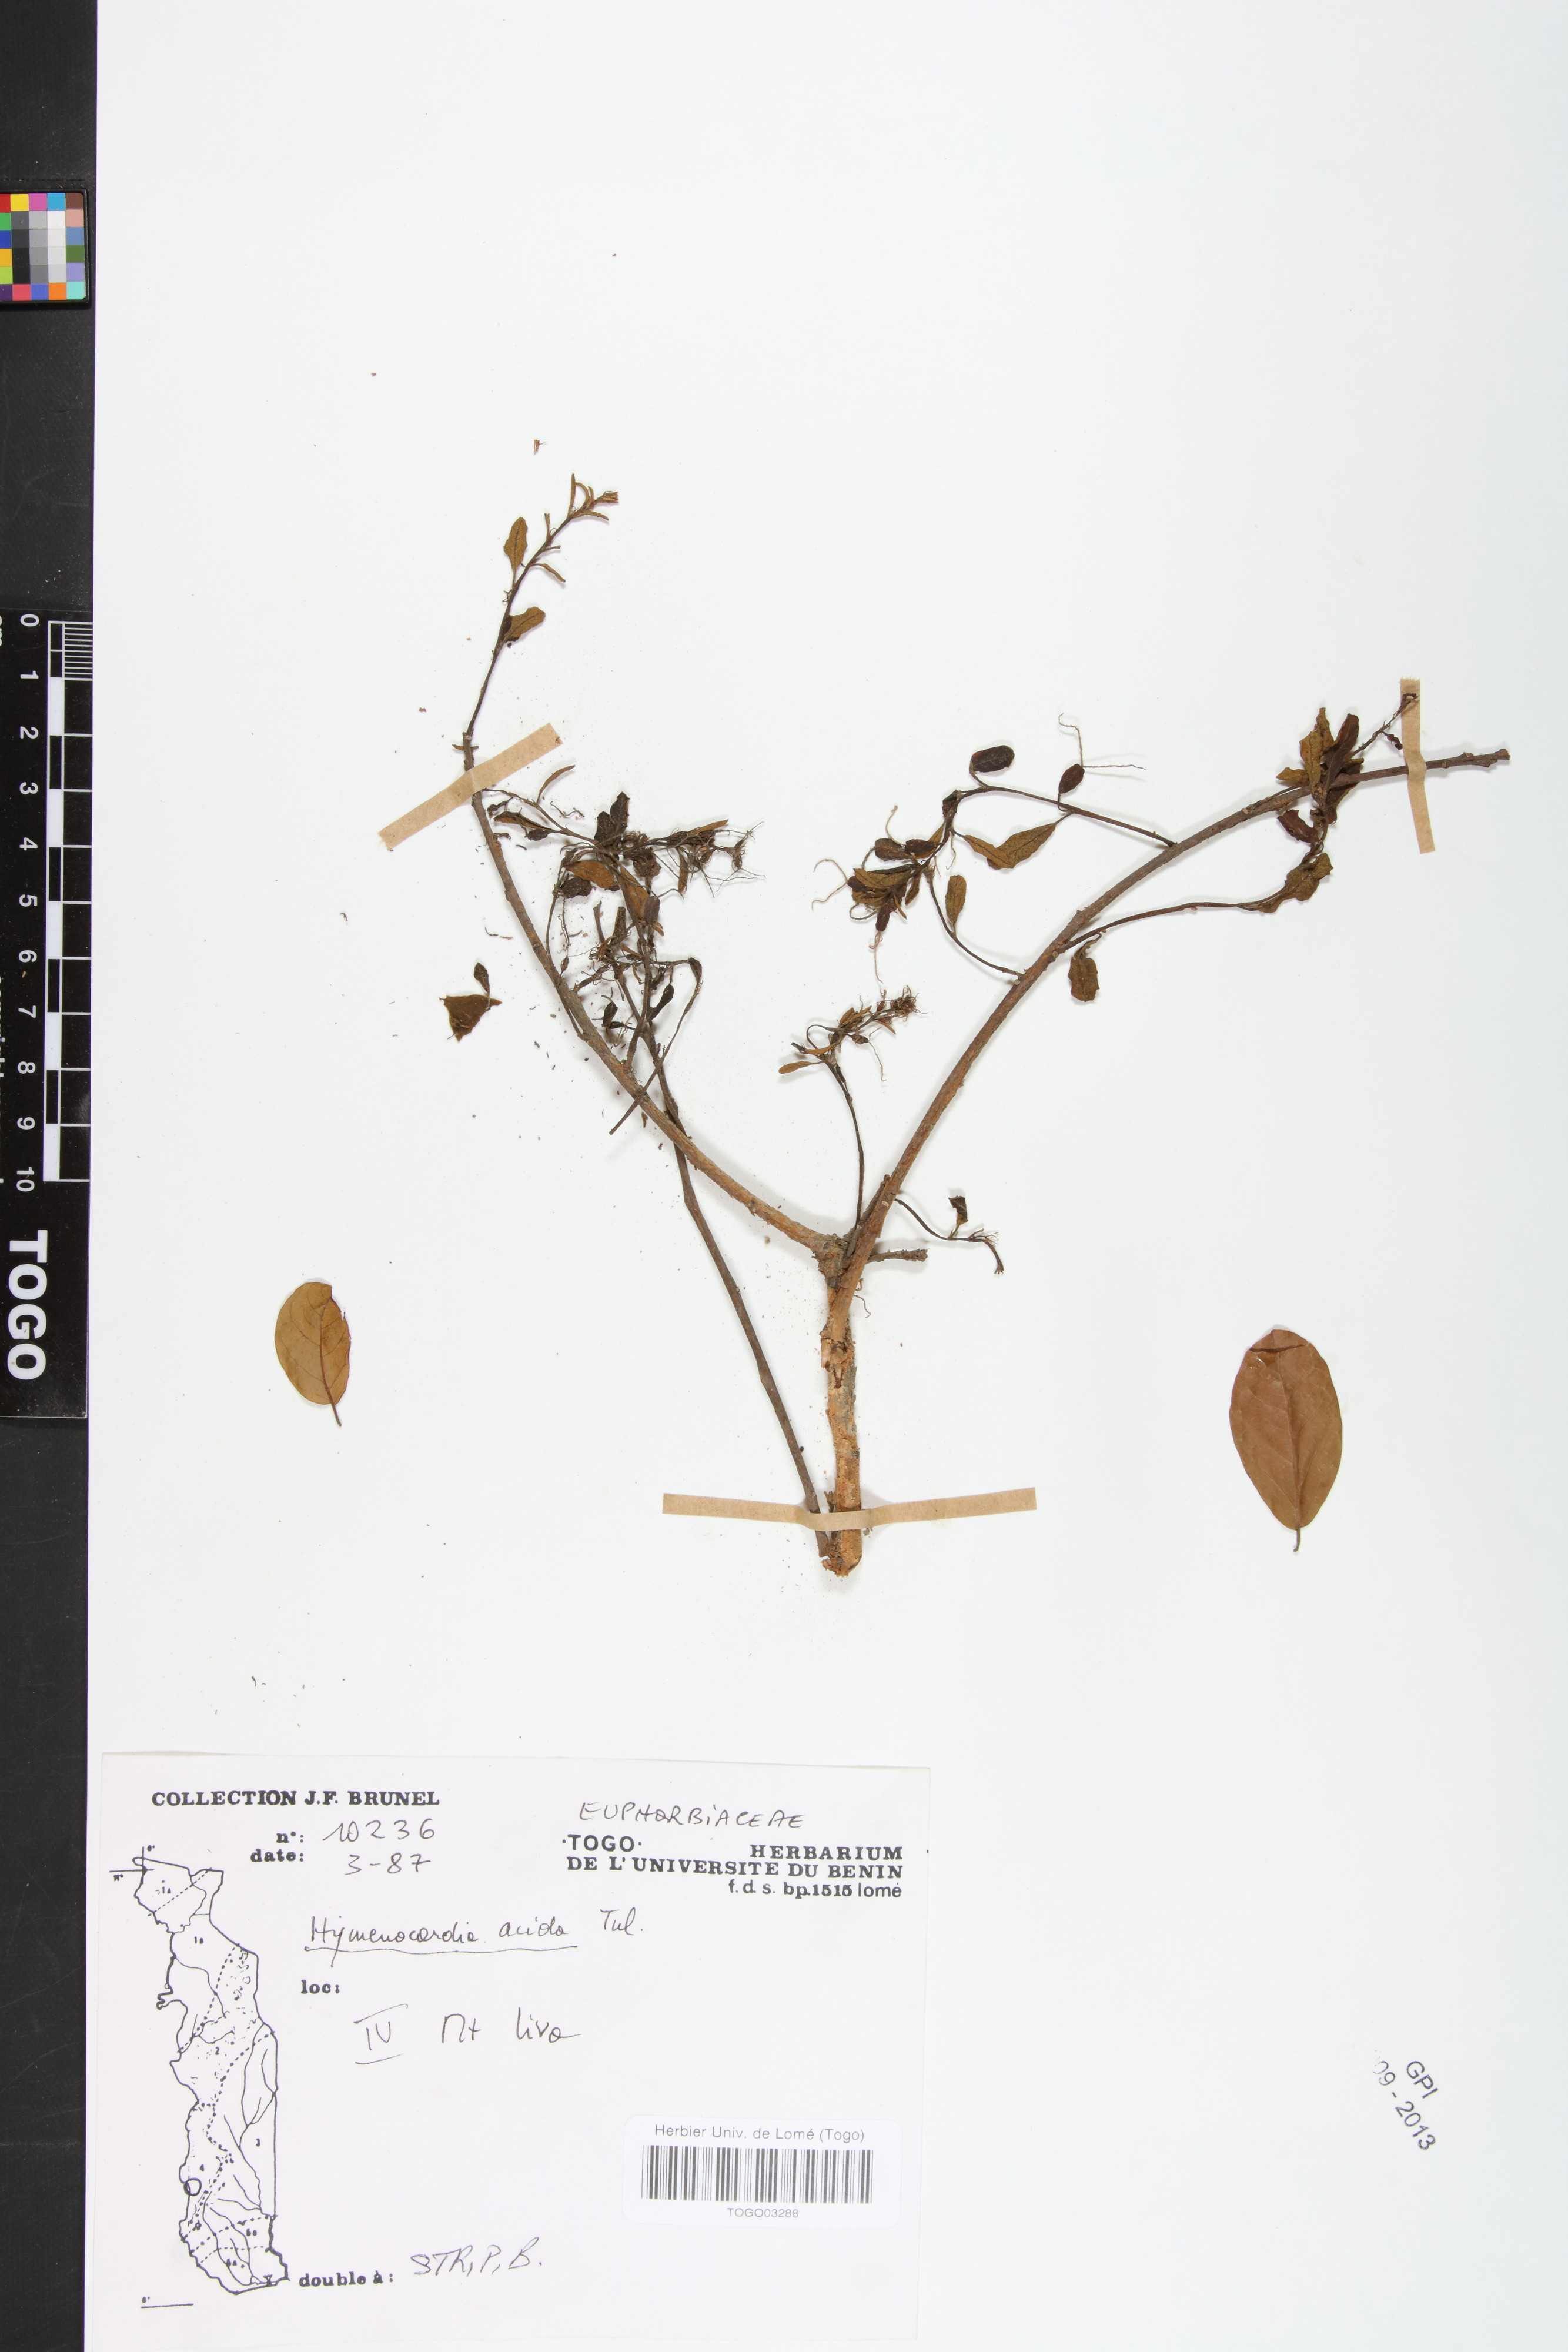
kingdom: Plantae
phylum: Tracheophyta
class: Magnoliopsida
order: Malpighiales
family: Phyllanthaceae
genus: Hymenocardia
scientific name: Hymenocardia acida
